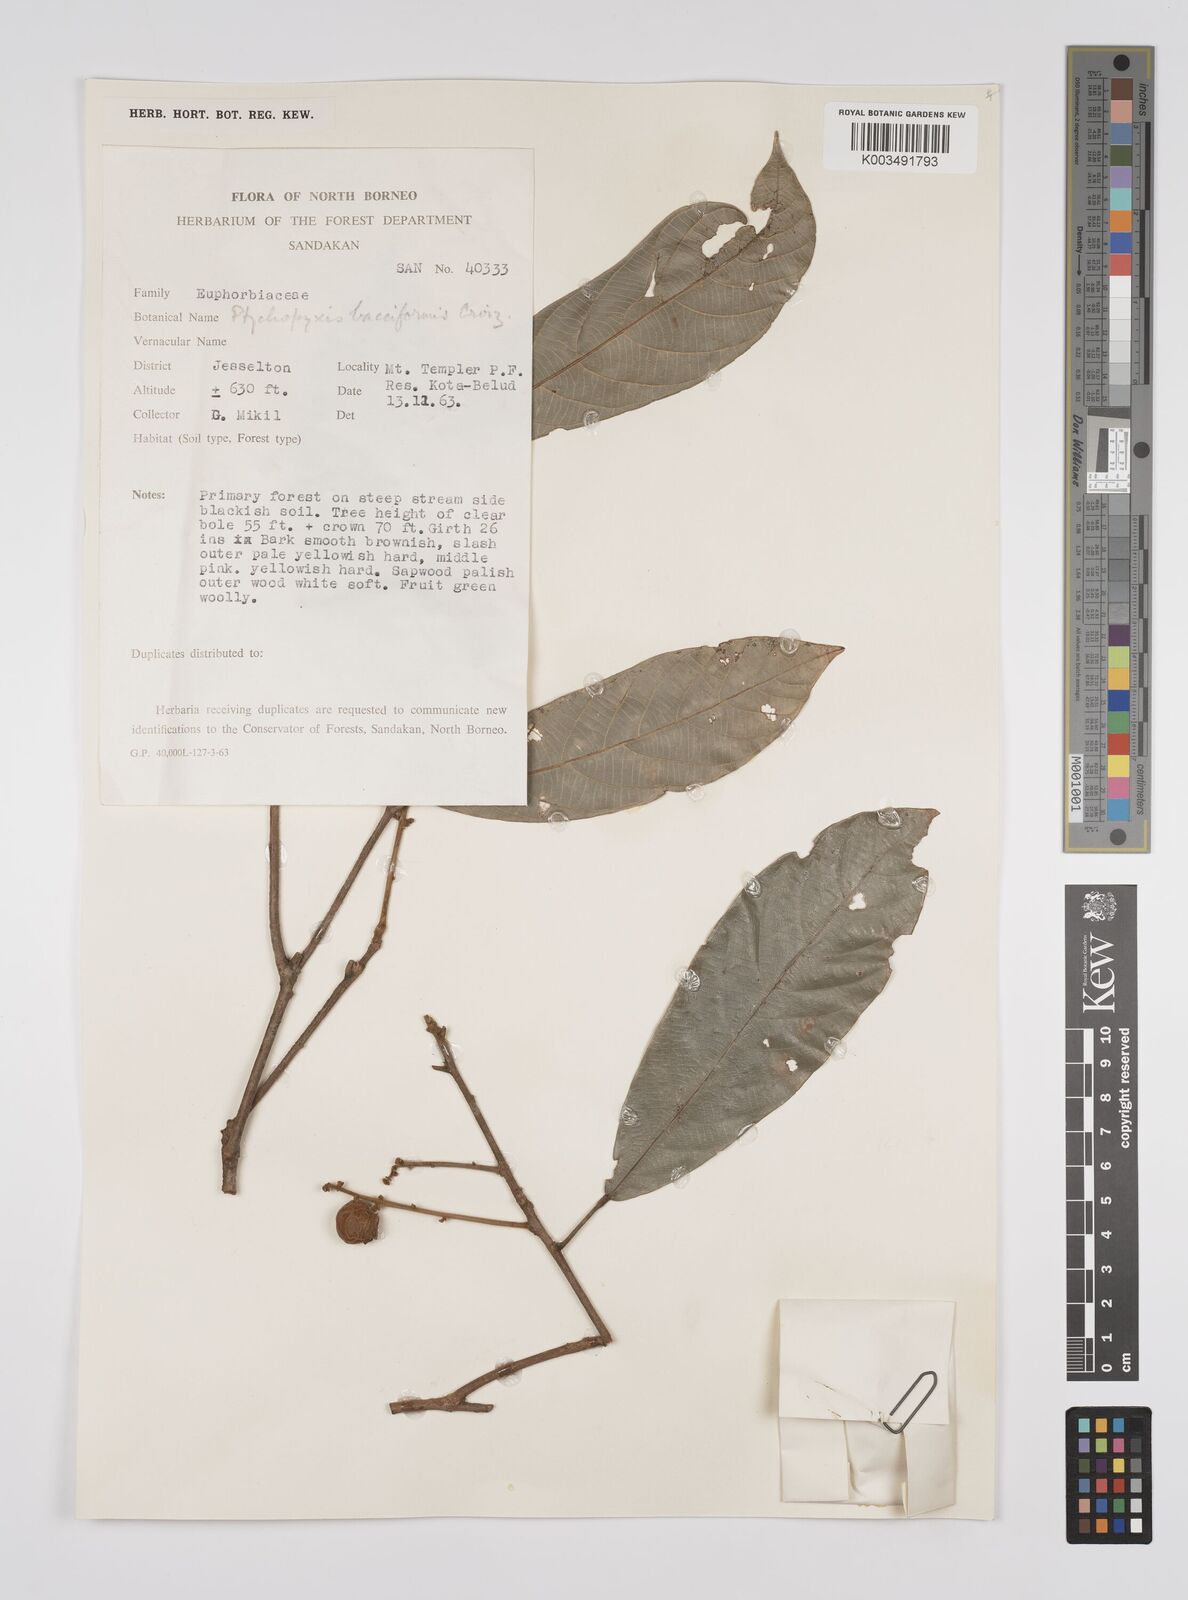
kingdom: Plantae
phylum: Tracheophyta
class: Magnoliopsida
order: Malpighiales
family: Euphorbiaceae
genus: Ptychopyxis
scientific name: Ptychopyxis bacciformis
